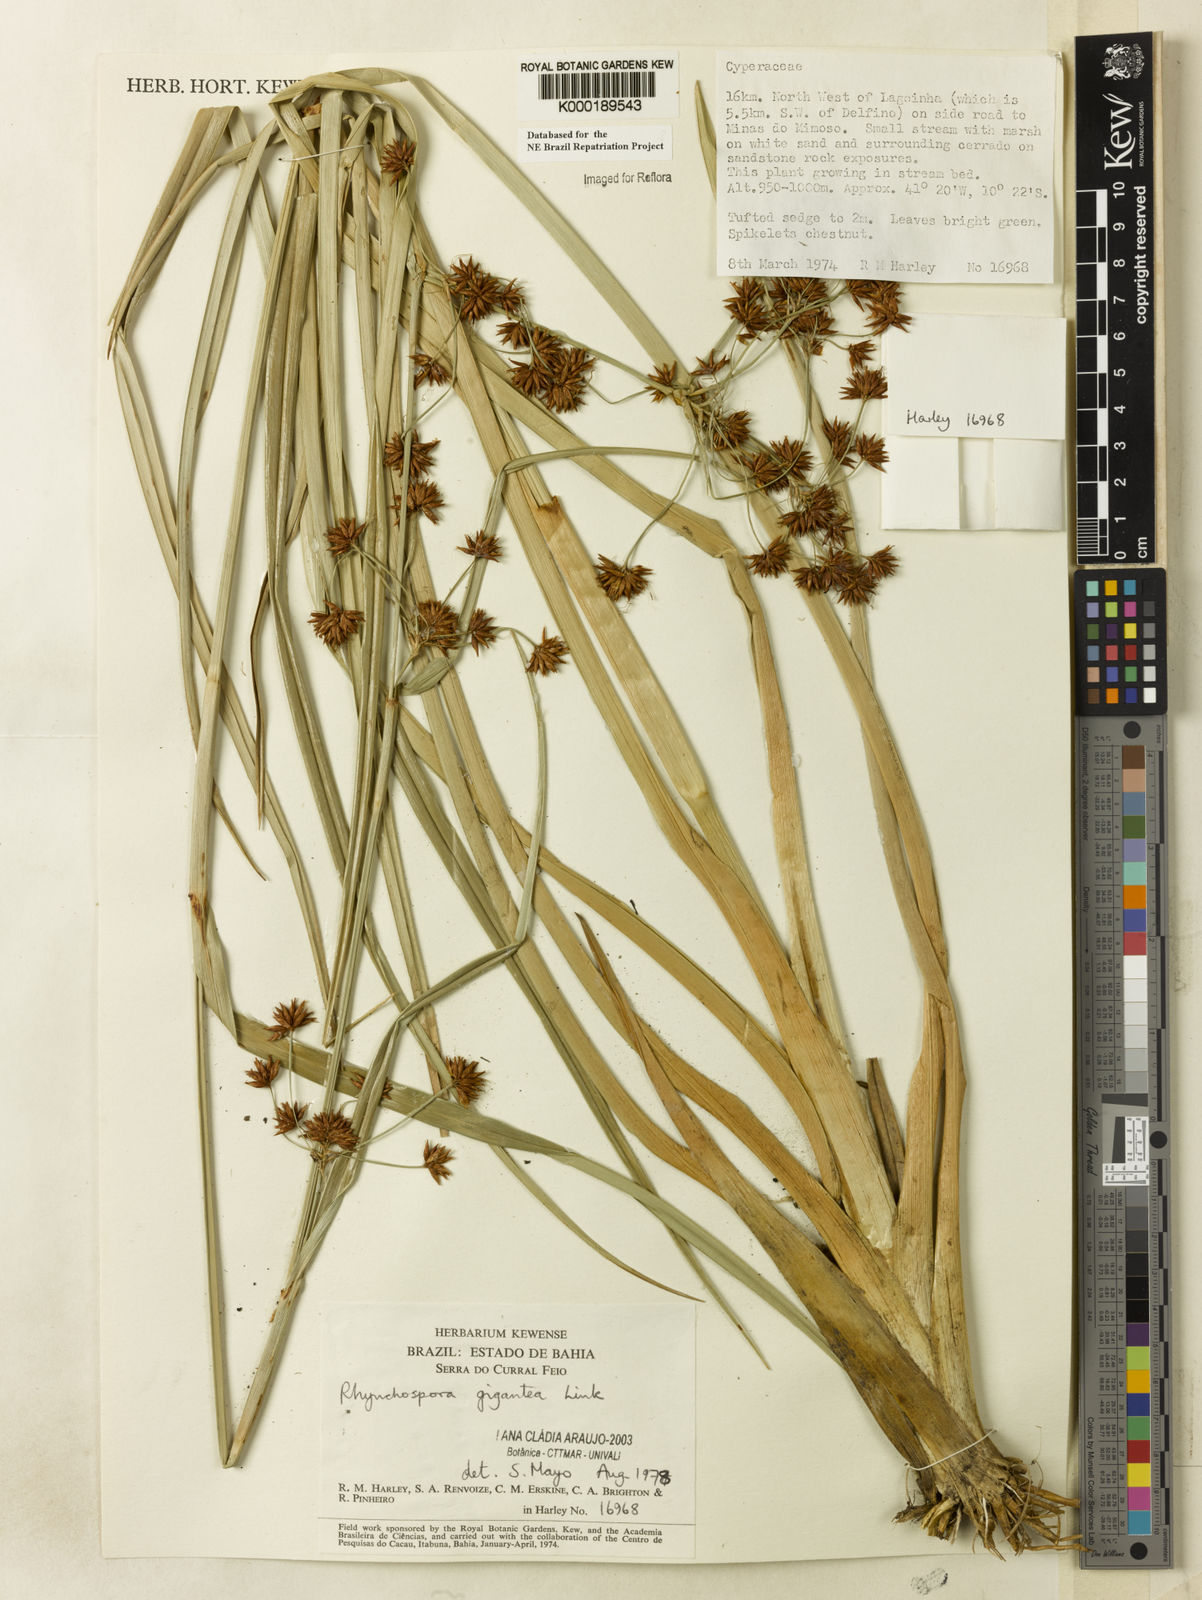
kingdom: Plantae
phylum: Tracheophyta
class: Liliopsida
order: Poales
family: Cyperaceae
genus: Rhynchospora
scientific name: Rhynchospora gigantea
